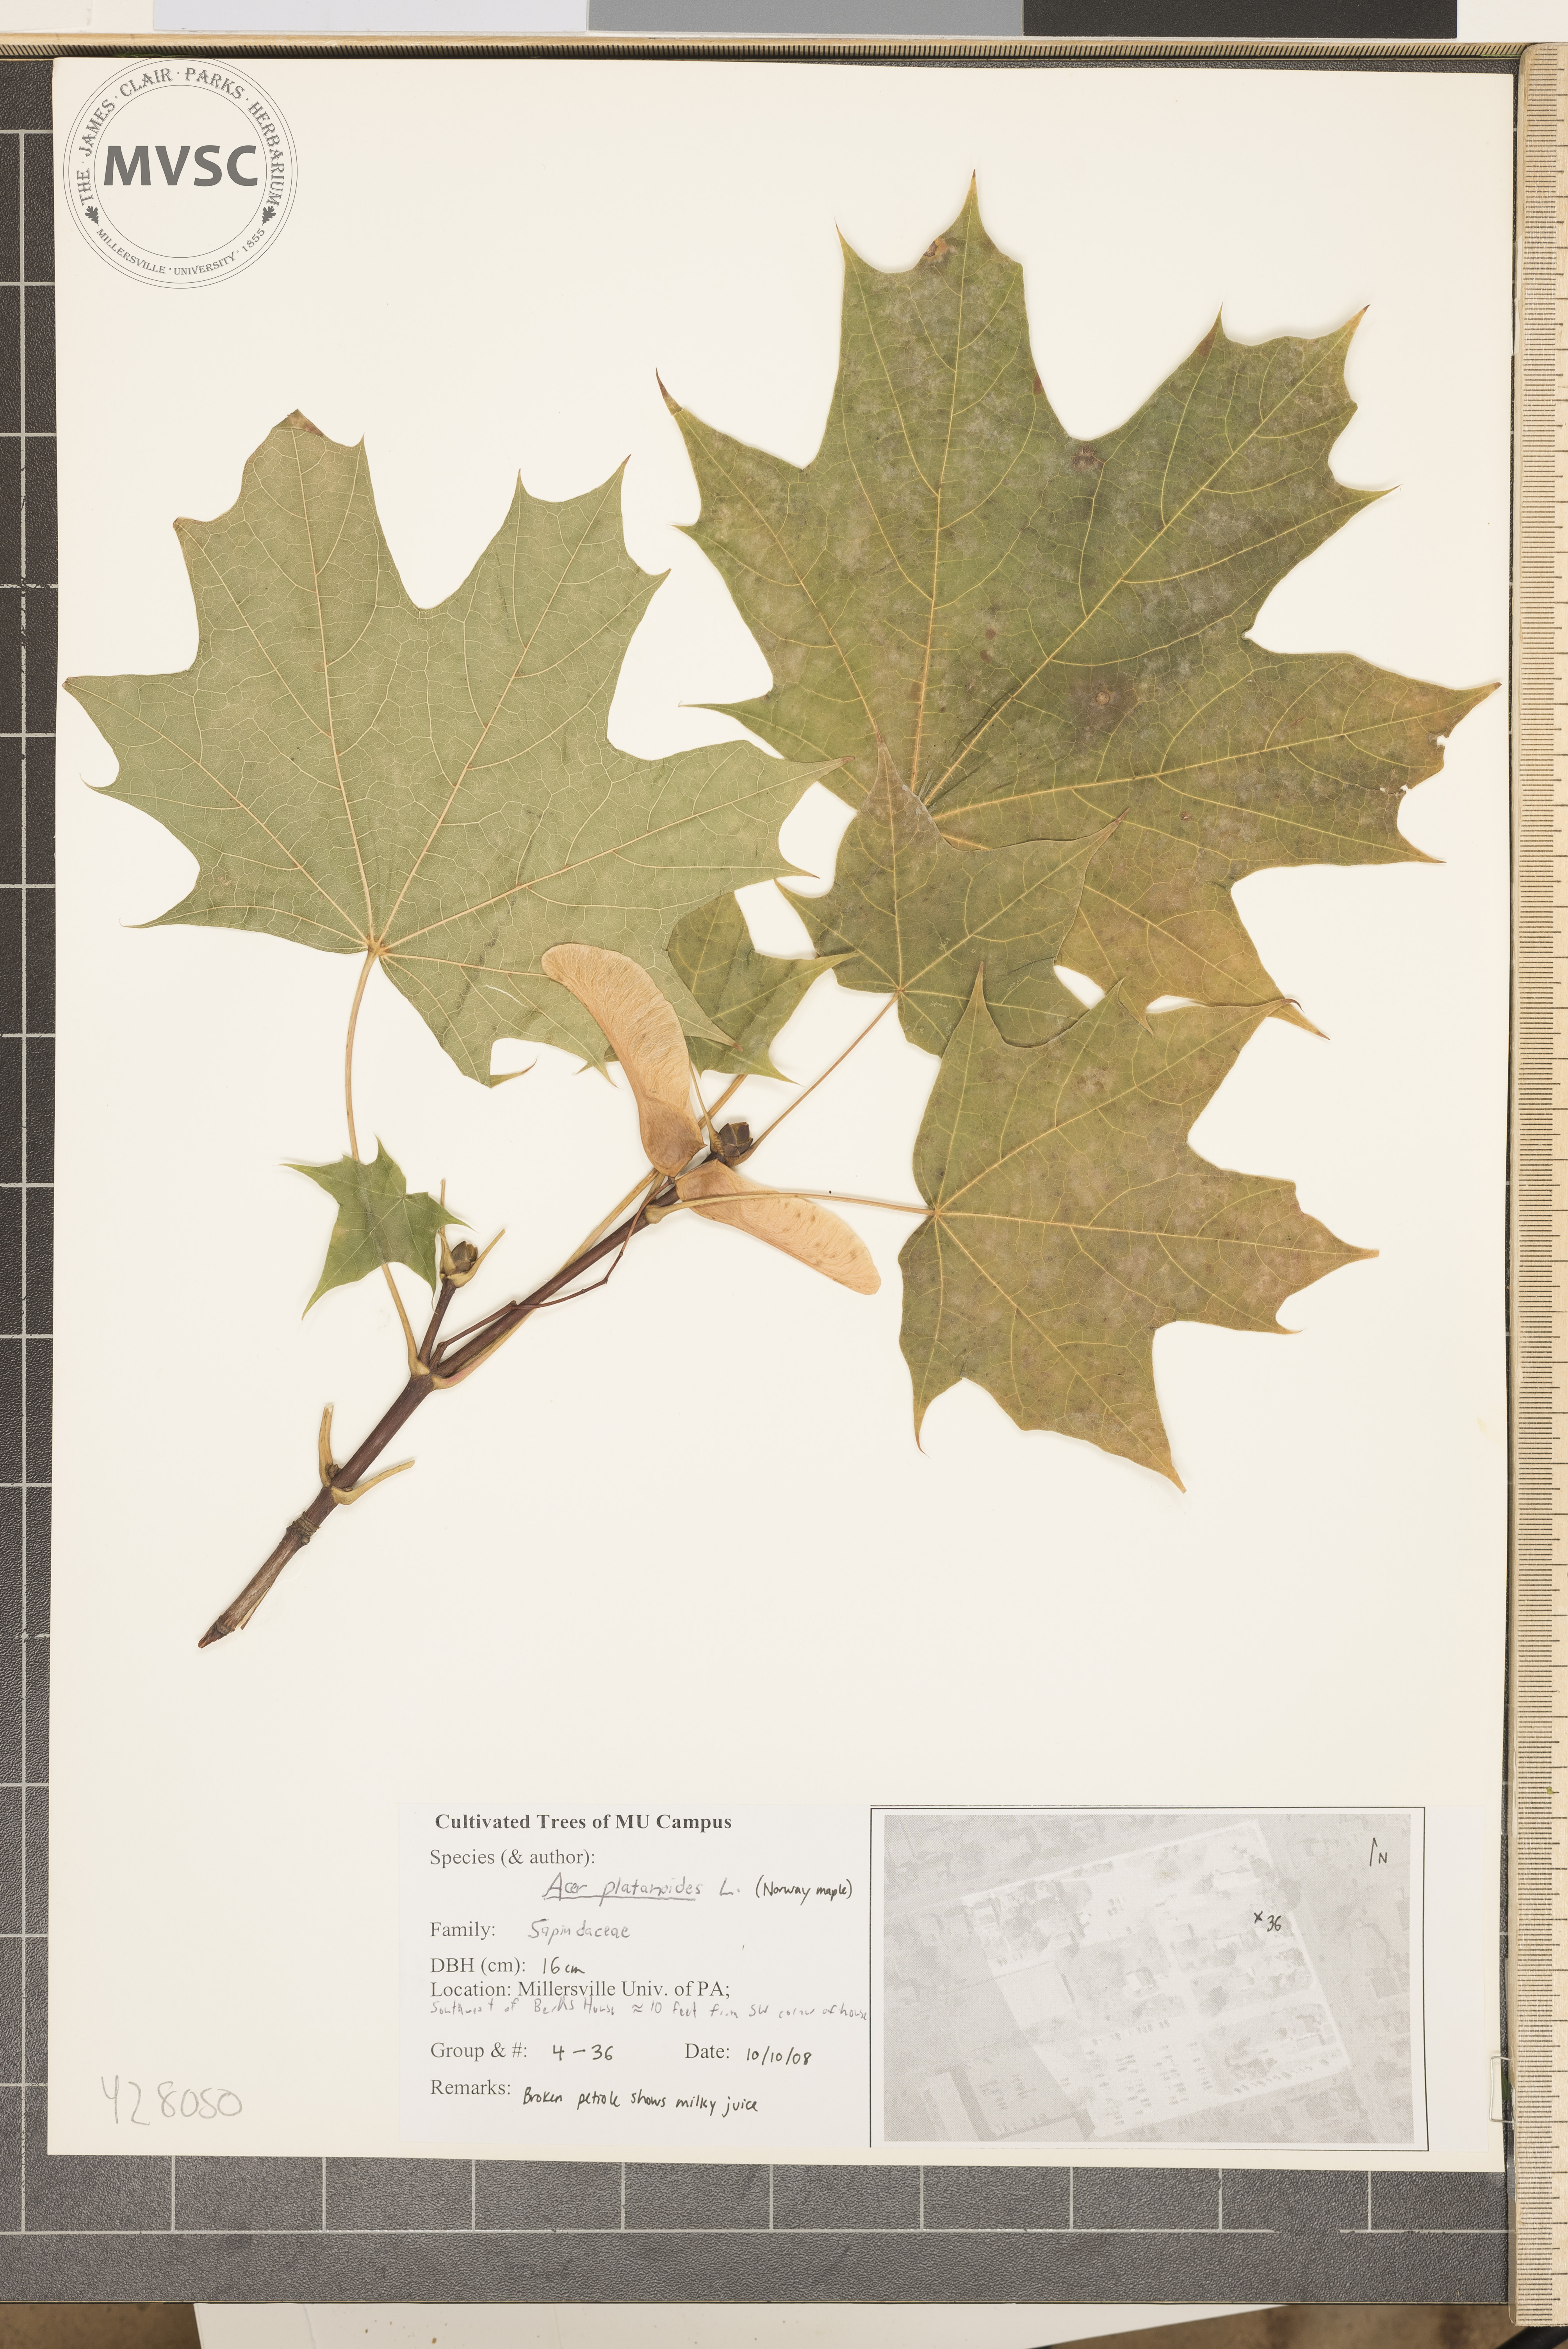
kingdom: Plantae
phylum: Tracheophyta
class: Magnoliopsida
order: Sapindales
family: Sapindaceae
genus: Acer
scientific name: Acer platanoides
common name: Norway Maple
